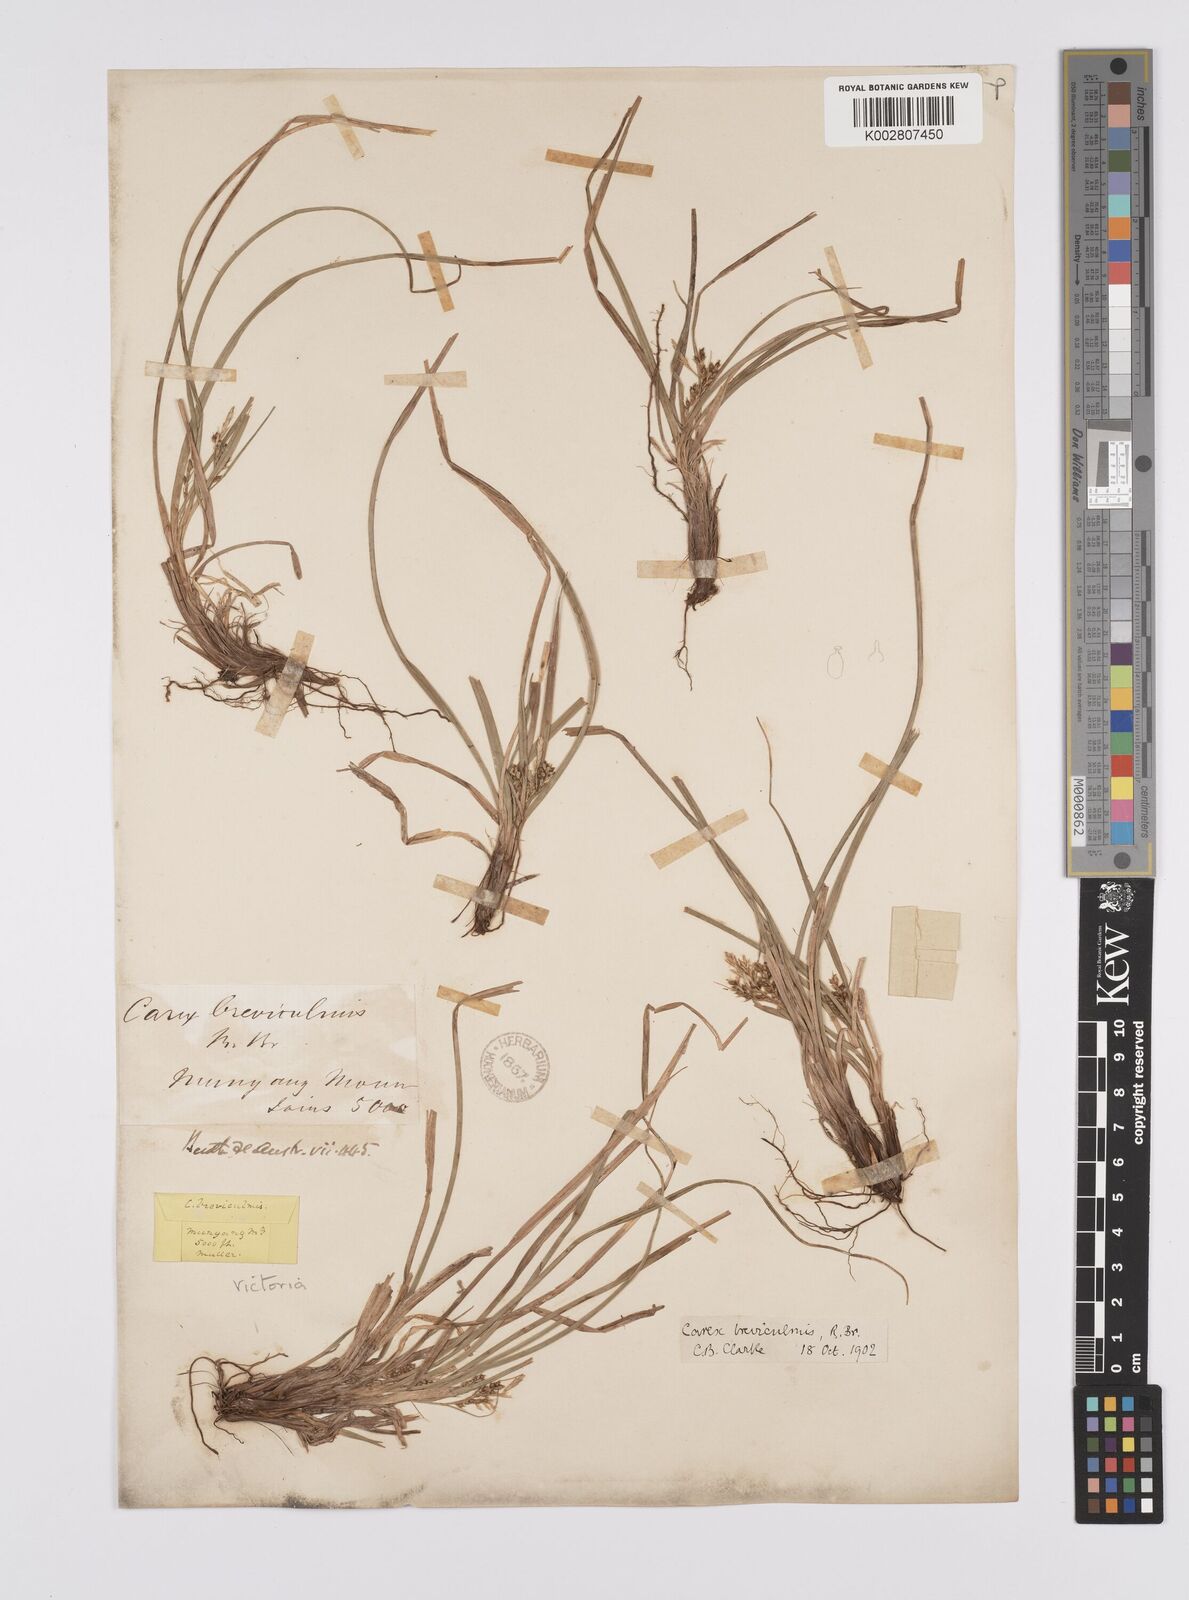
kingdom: Plantae
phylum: Tracheophyta
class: Liliopsida
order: Poales
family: Cyperaceae
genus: Carex
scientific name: Carex breviculmis
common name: Asian shortstem sedge
